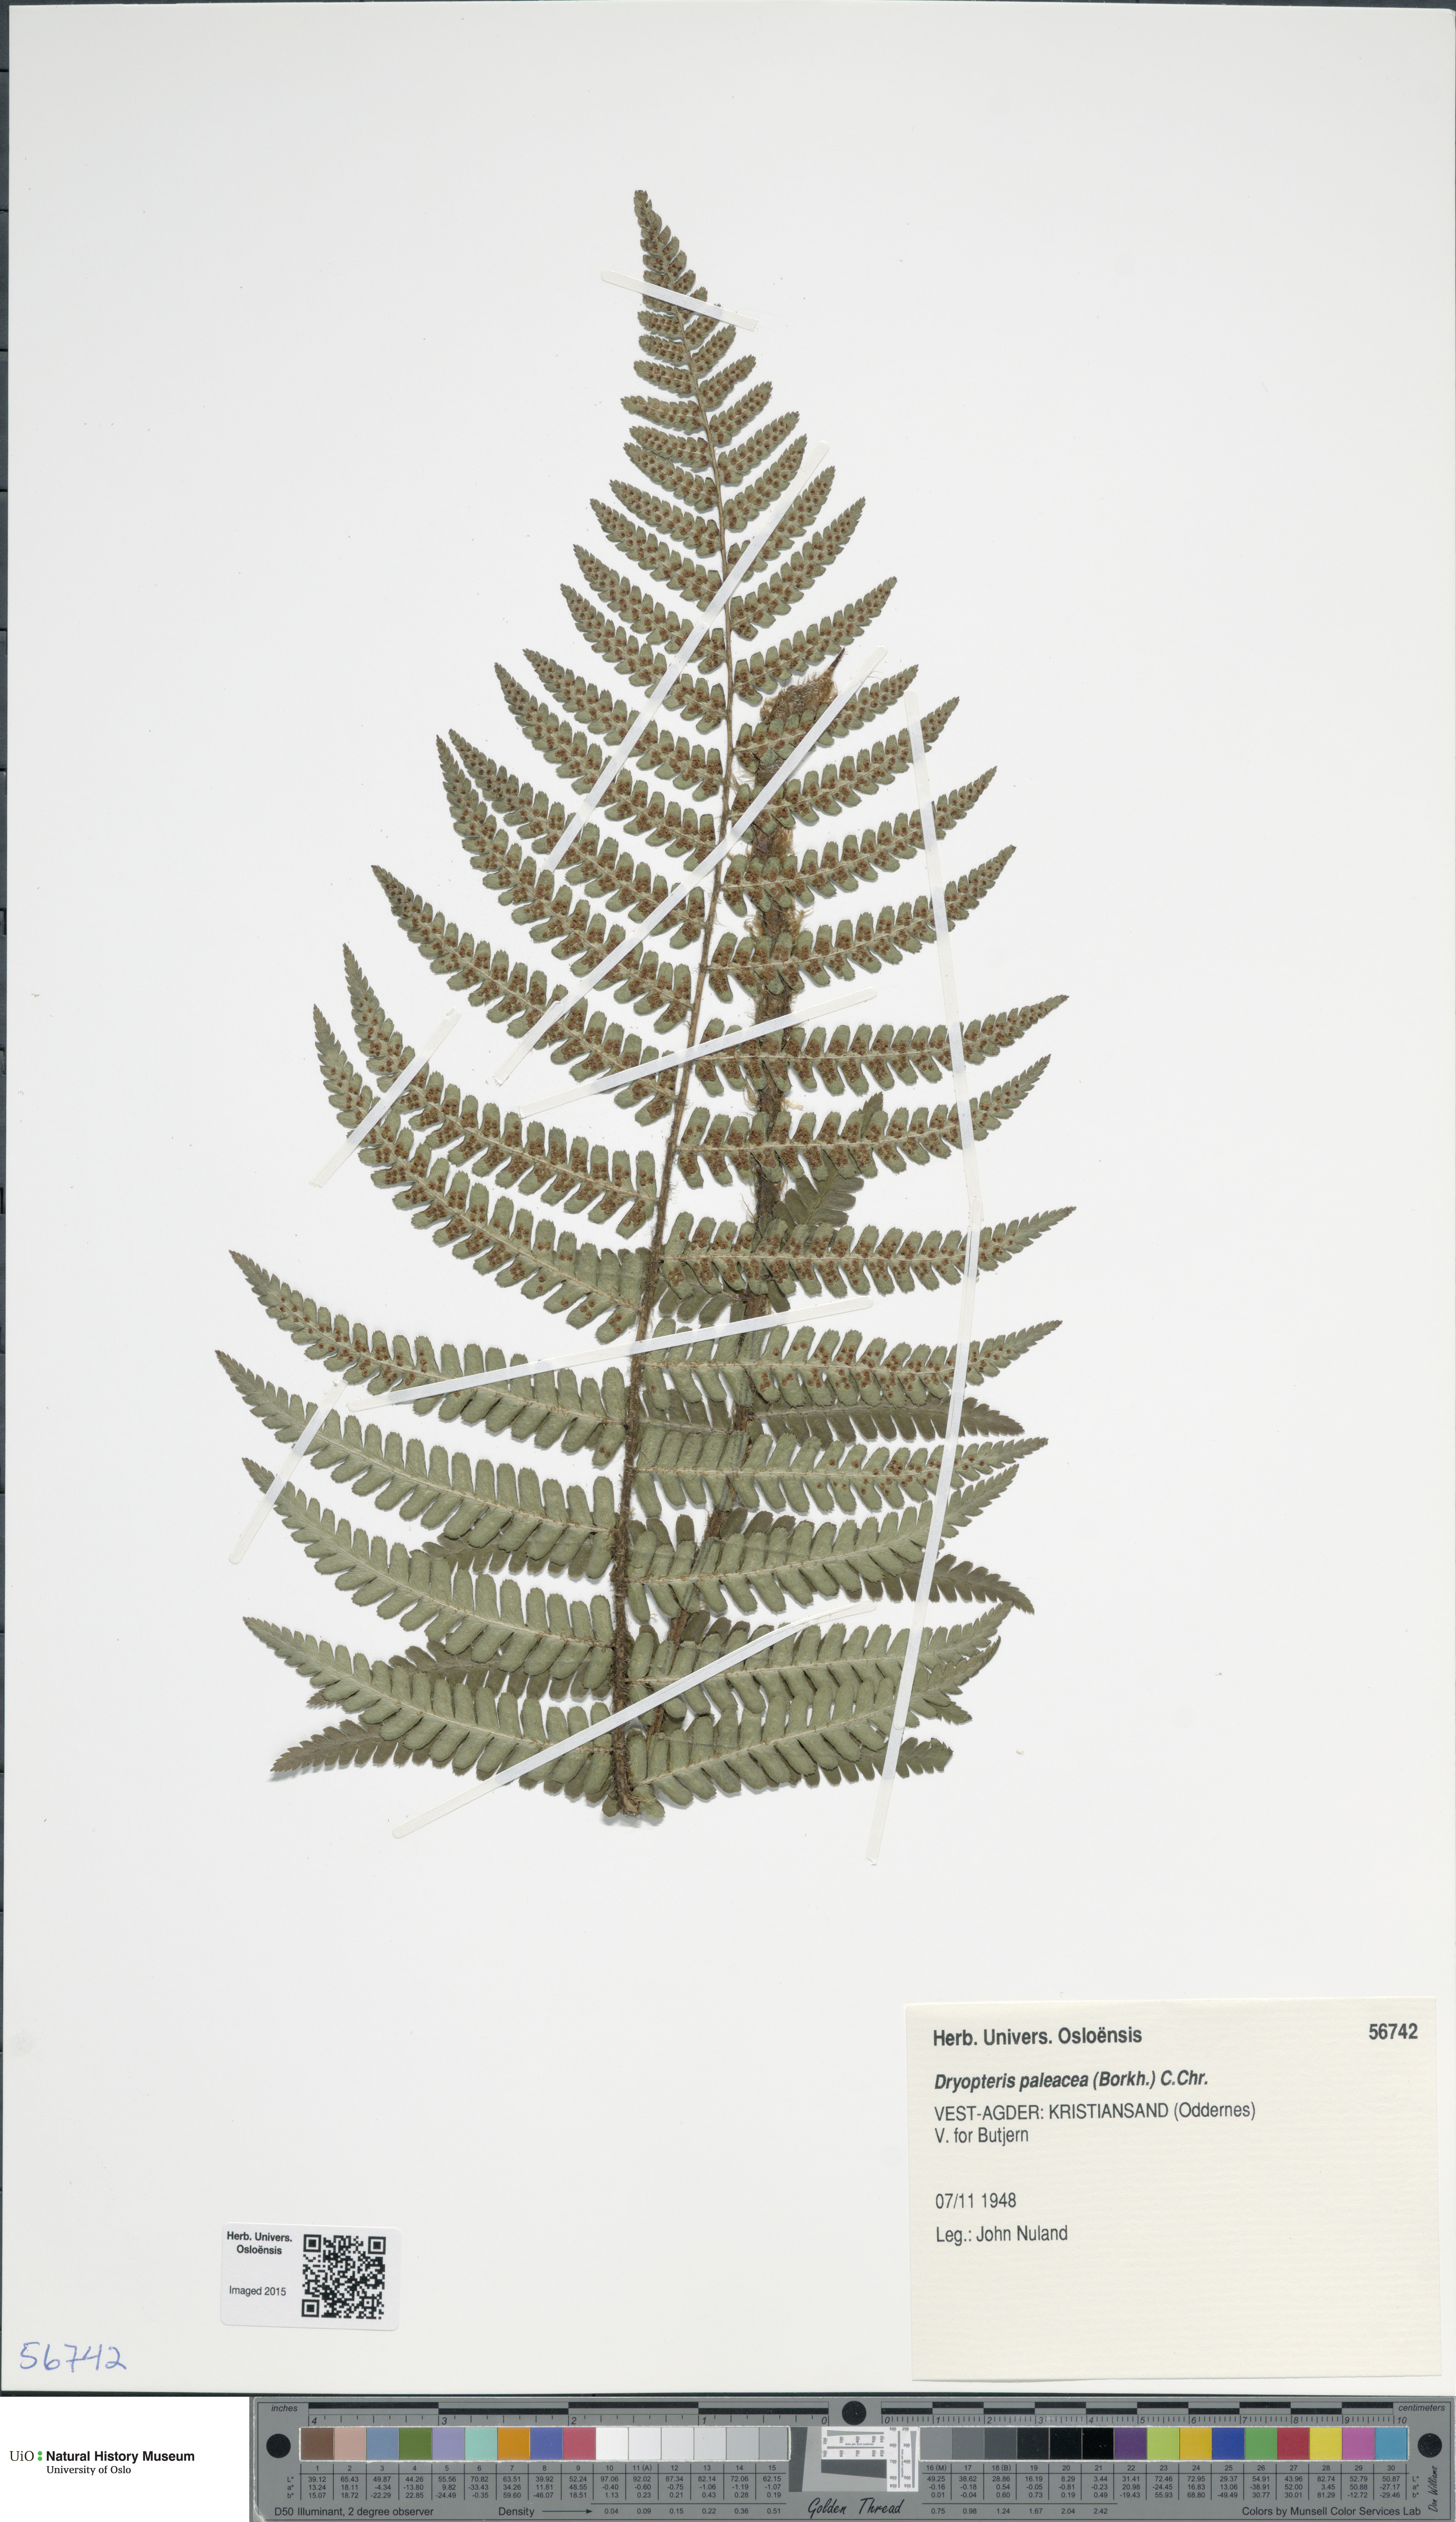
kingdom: Plantae
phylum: Tracheophyta
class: Polypodiopsida
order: Polypodiales
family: Dryopteridaceae
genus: Dryopteris
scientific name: Dryopteris wallichiana
